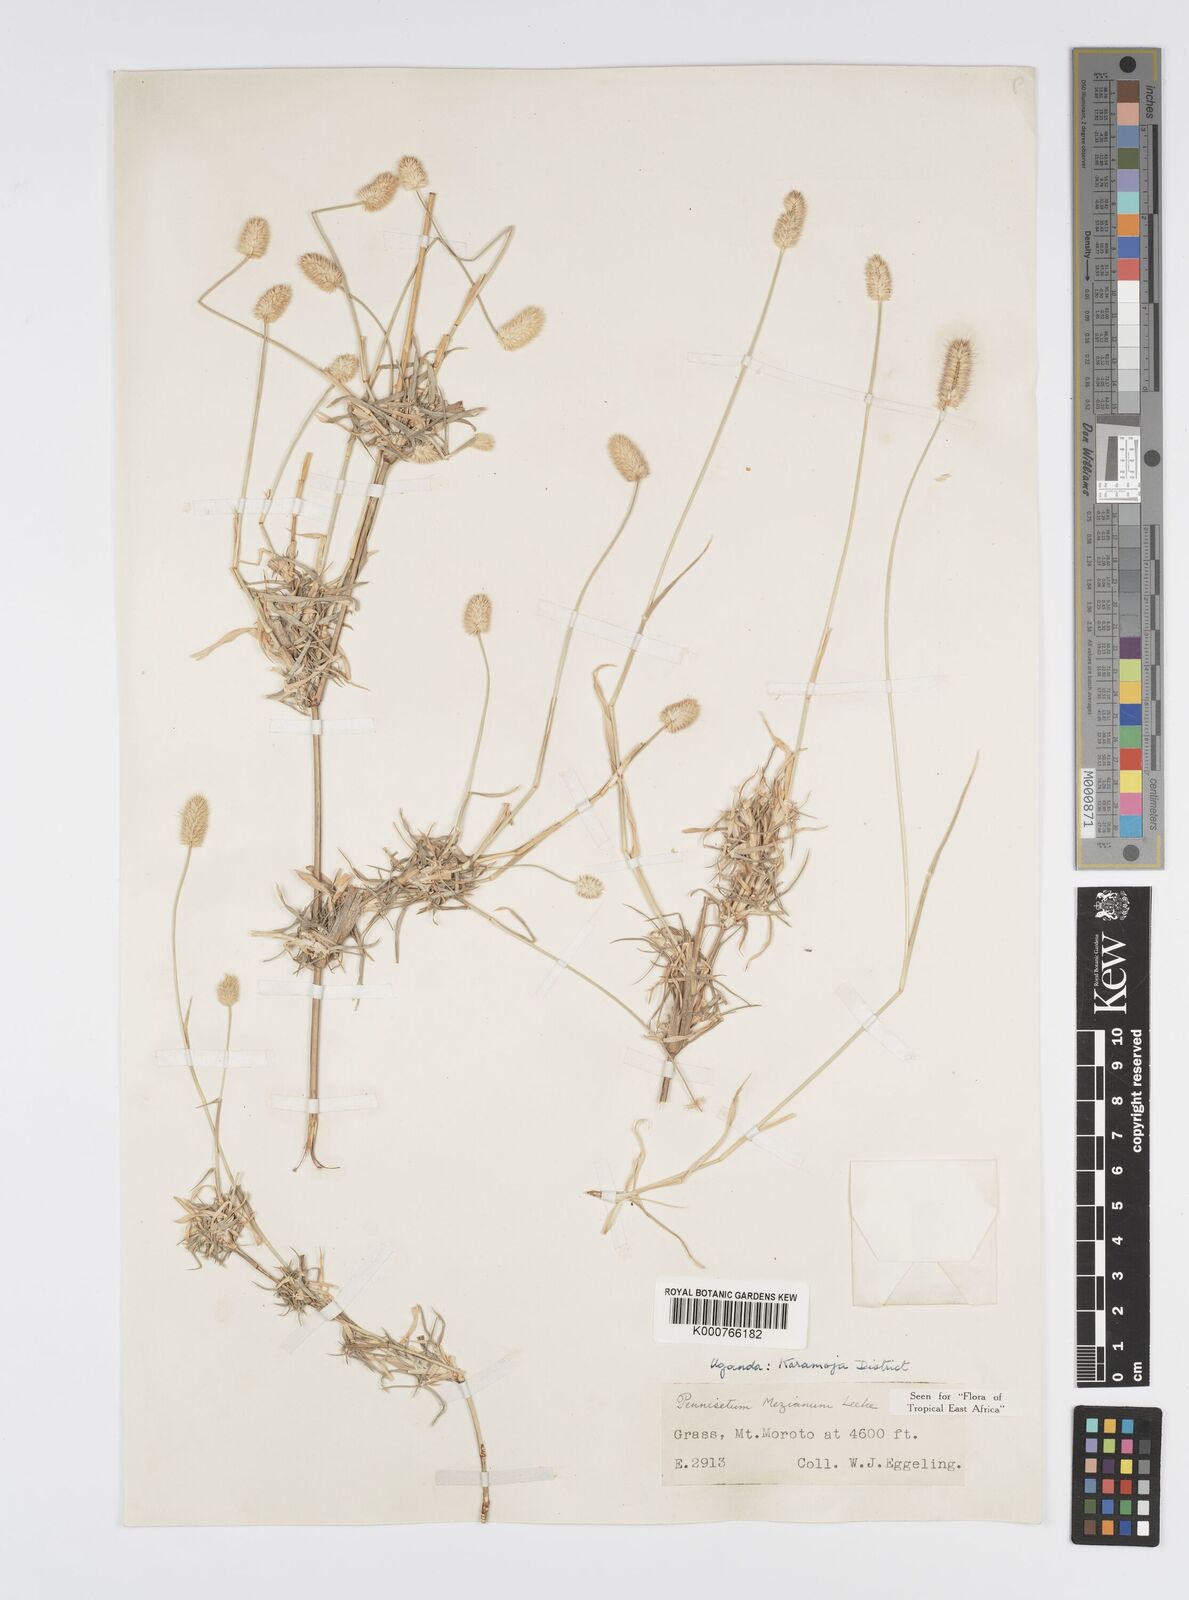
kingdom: Plantae
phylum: Tracheophyta
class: Liliopsida
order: Poales
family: Poaceae
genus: Cenchrus
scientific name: Cenchrus mezianus
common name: Bamboo grass
